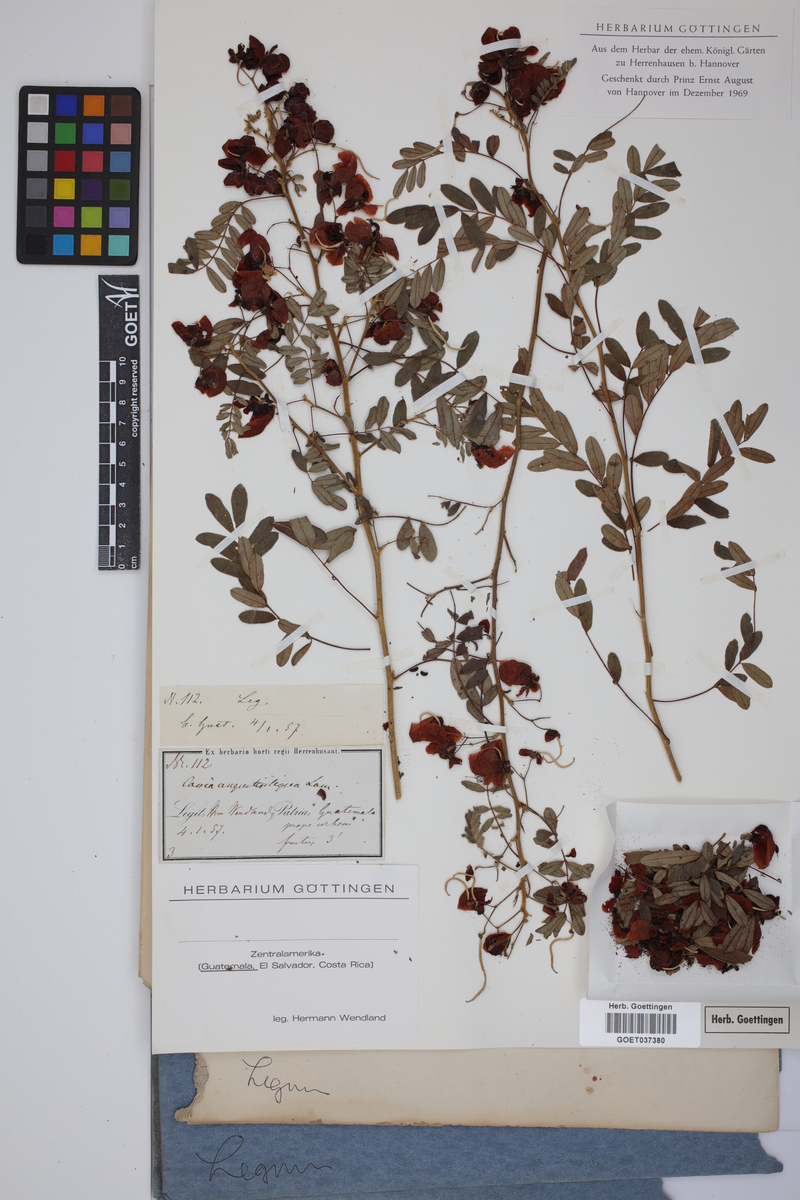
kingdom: Plantae
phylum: Tracheophyta
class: Magnoliopsida
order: Fabales
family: Fabaceae
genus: Senna
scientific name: Senna angustisiliqua
